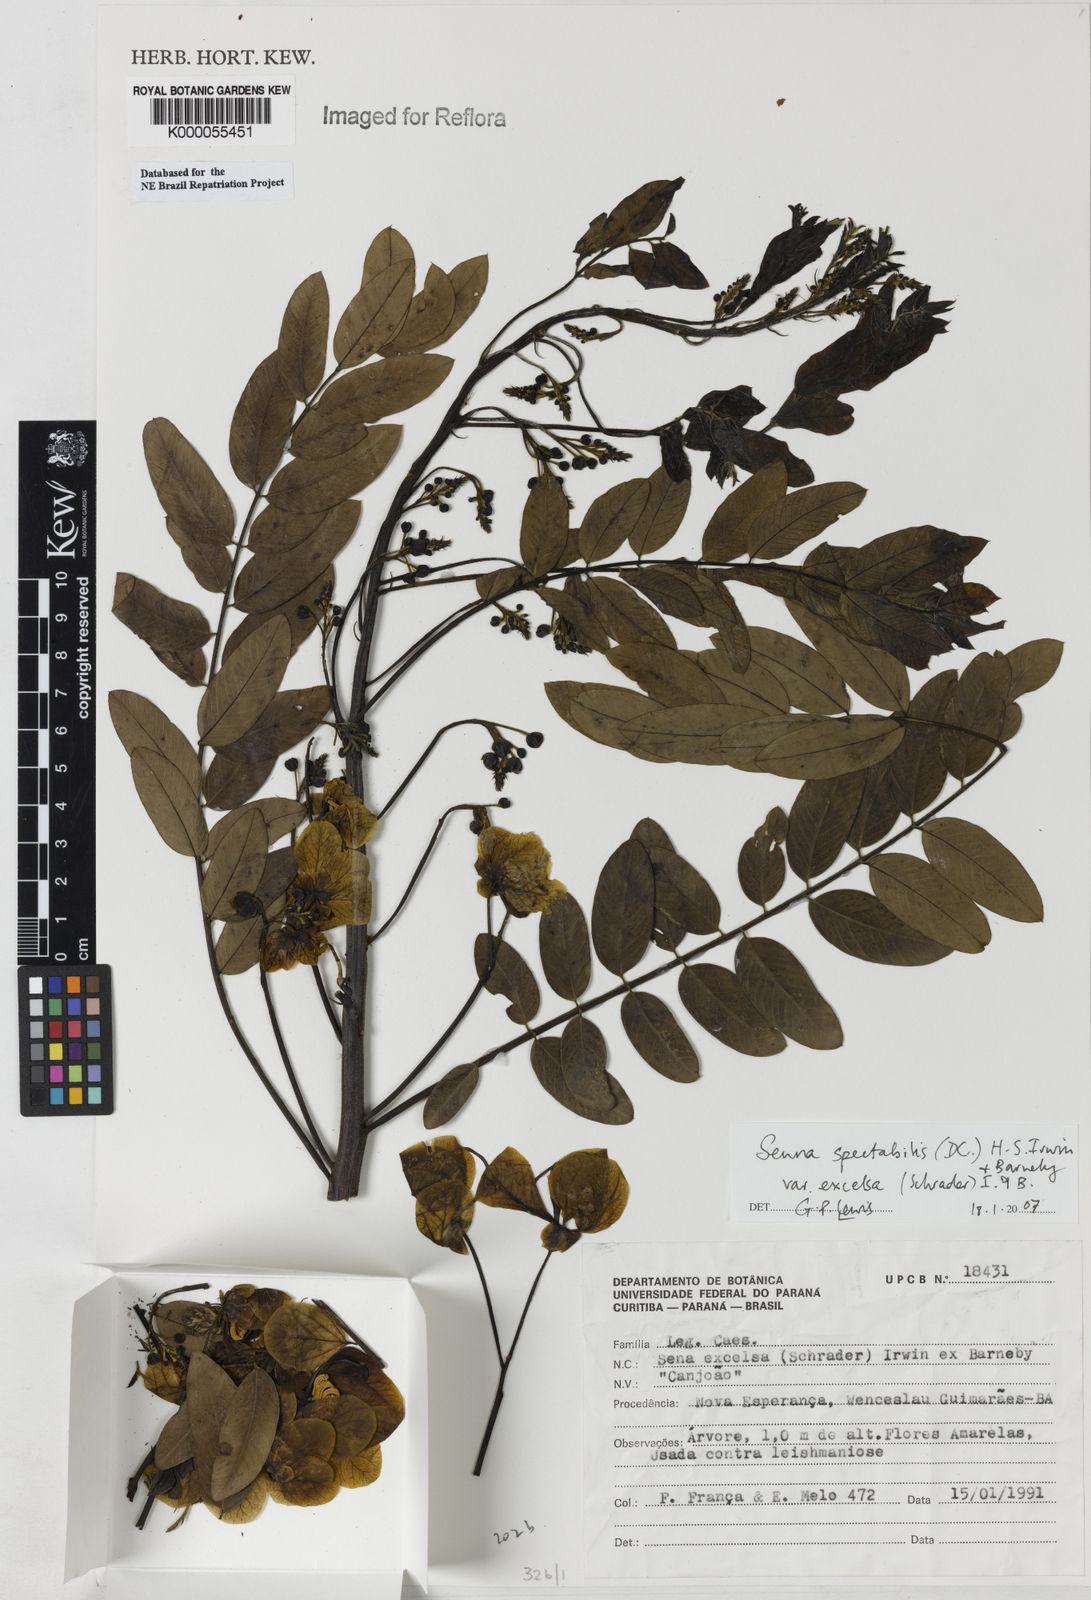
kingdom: Plantae
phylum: Tracheophyta
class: Magnoliopsida
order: Fabales
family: Fabaceae
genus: Senna
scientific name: Senna
